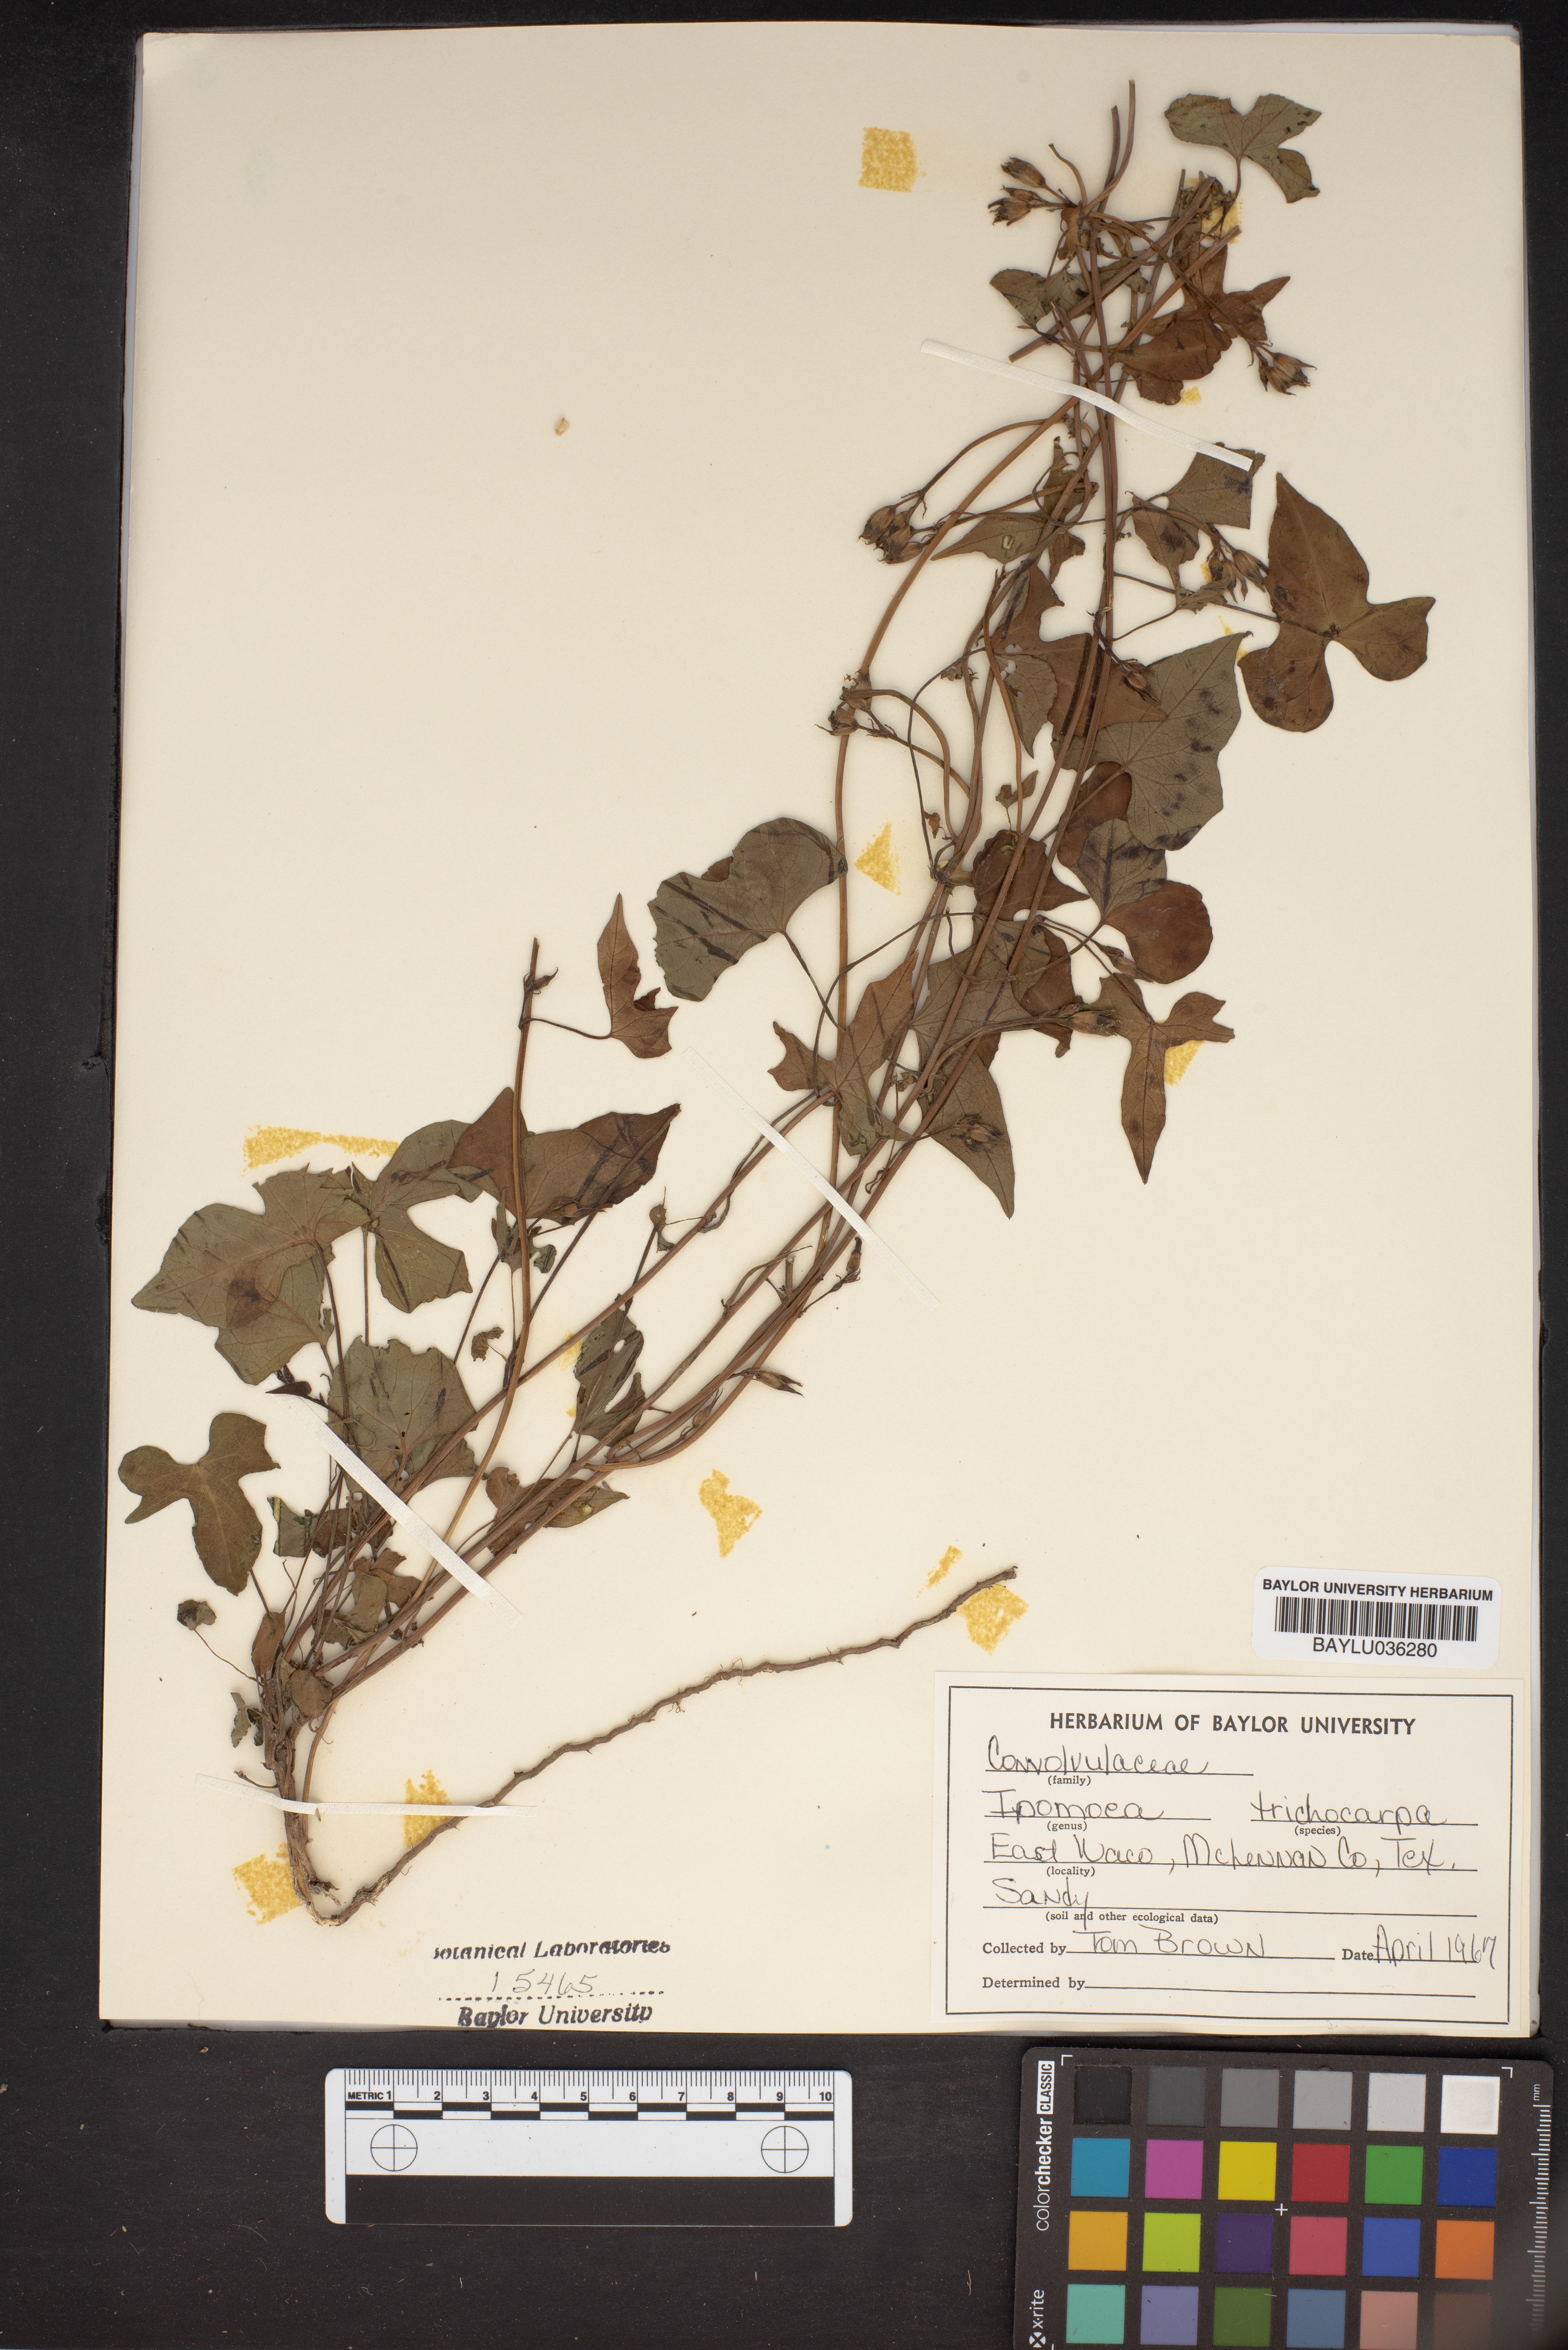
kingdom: Plantae
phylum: Tracheophyta
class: Magnoliopsida
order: Solanales
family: Convolvulaceae
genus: Ipomoea
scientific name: Ipomoea cordatotriloba
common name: Cotton morning glory
